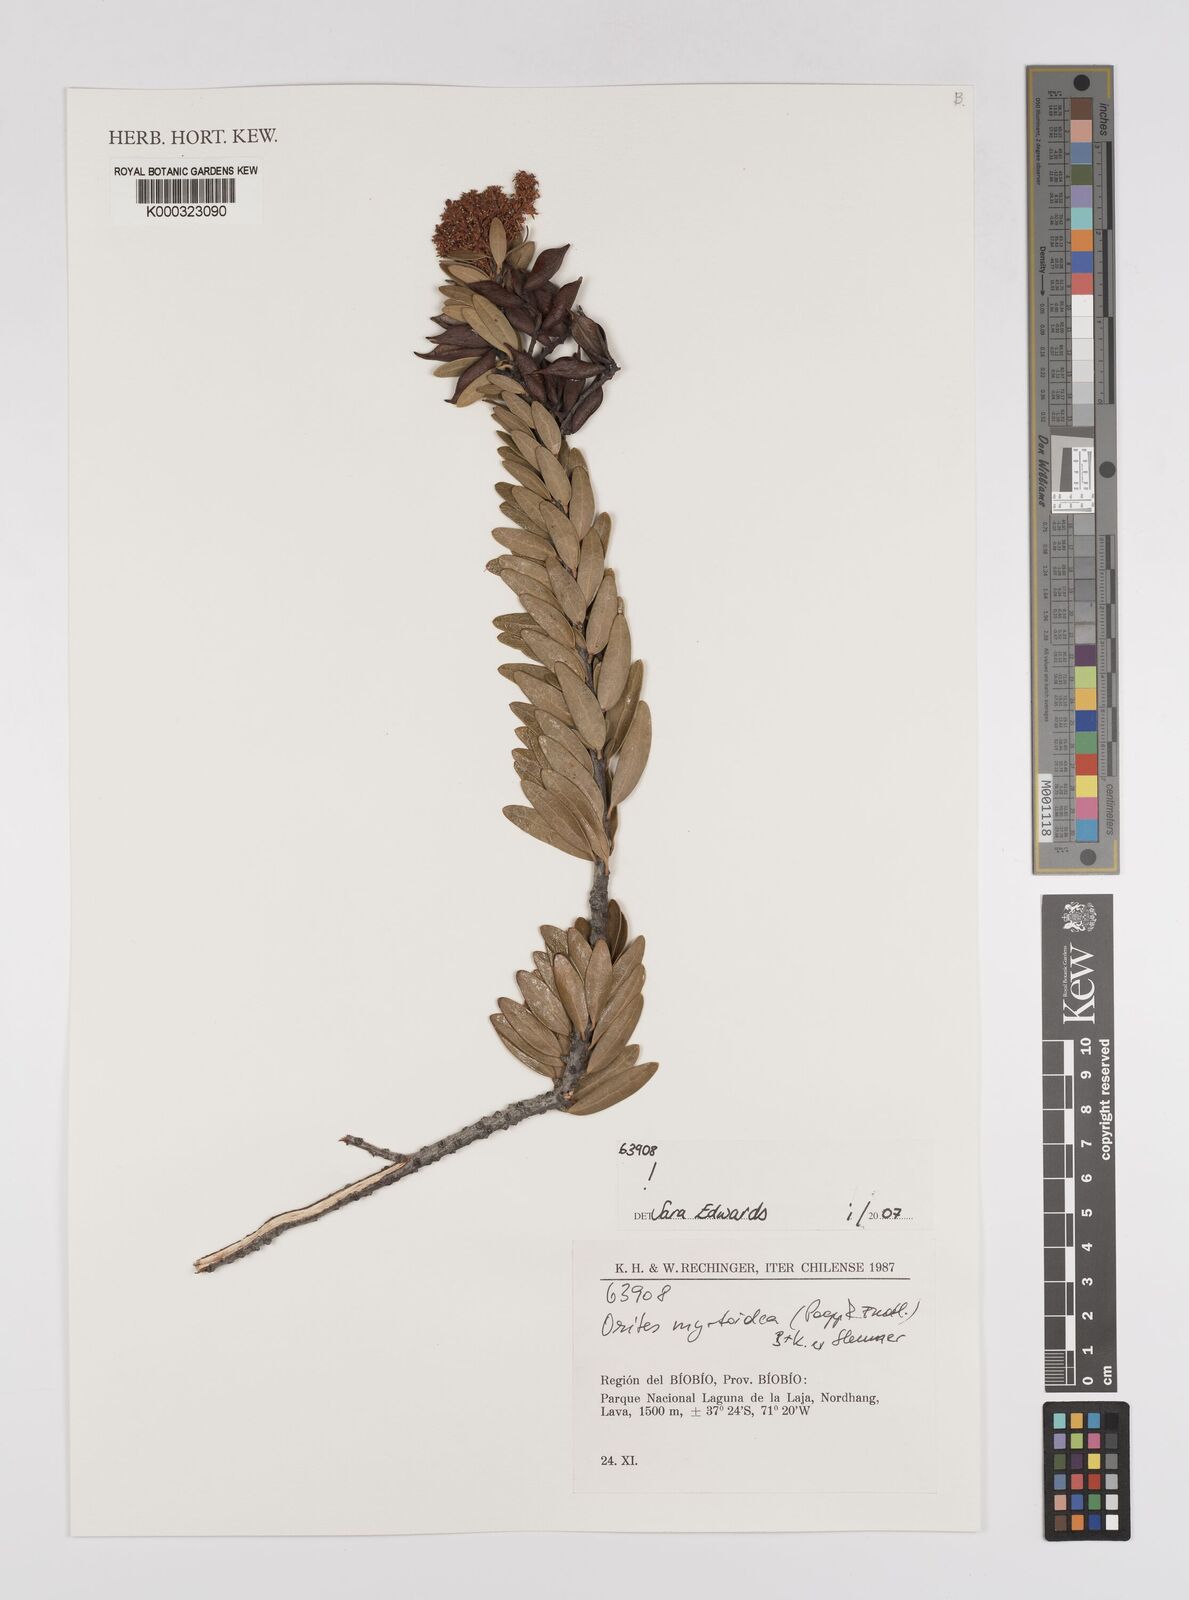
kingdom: Plantae
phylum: Tracheophyta
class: Magnoliopsida
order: Proteales
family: Proteaceae
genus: Orites
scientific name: Orites
